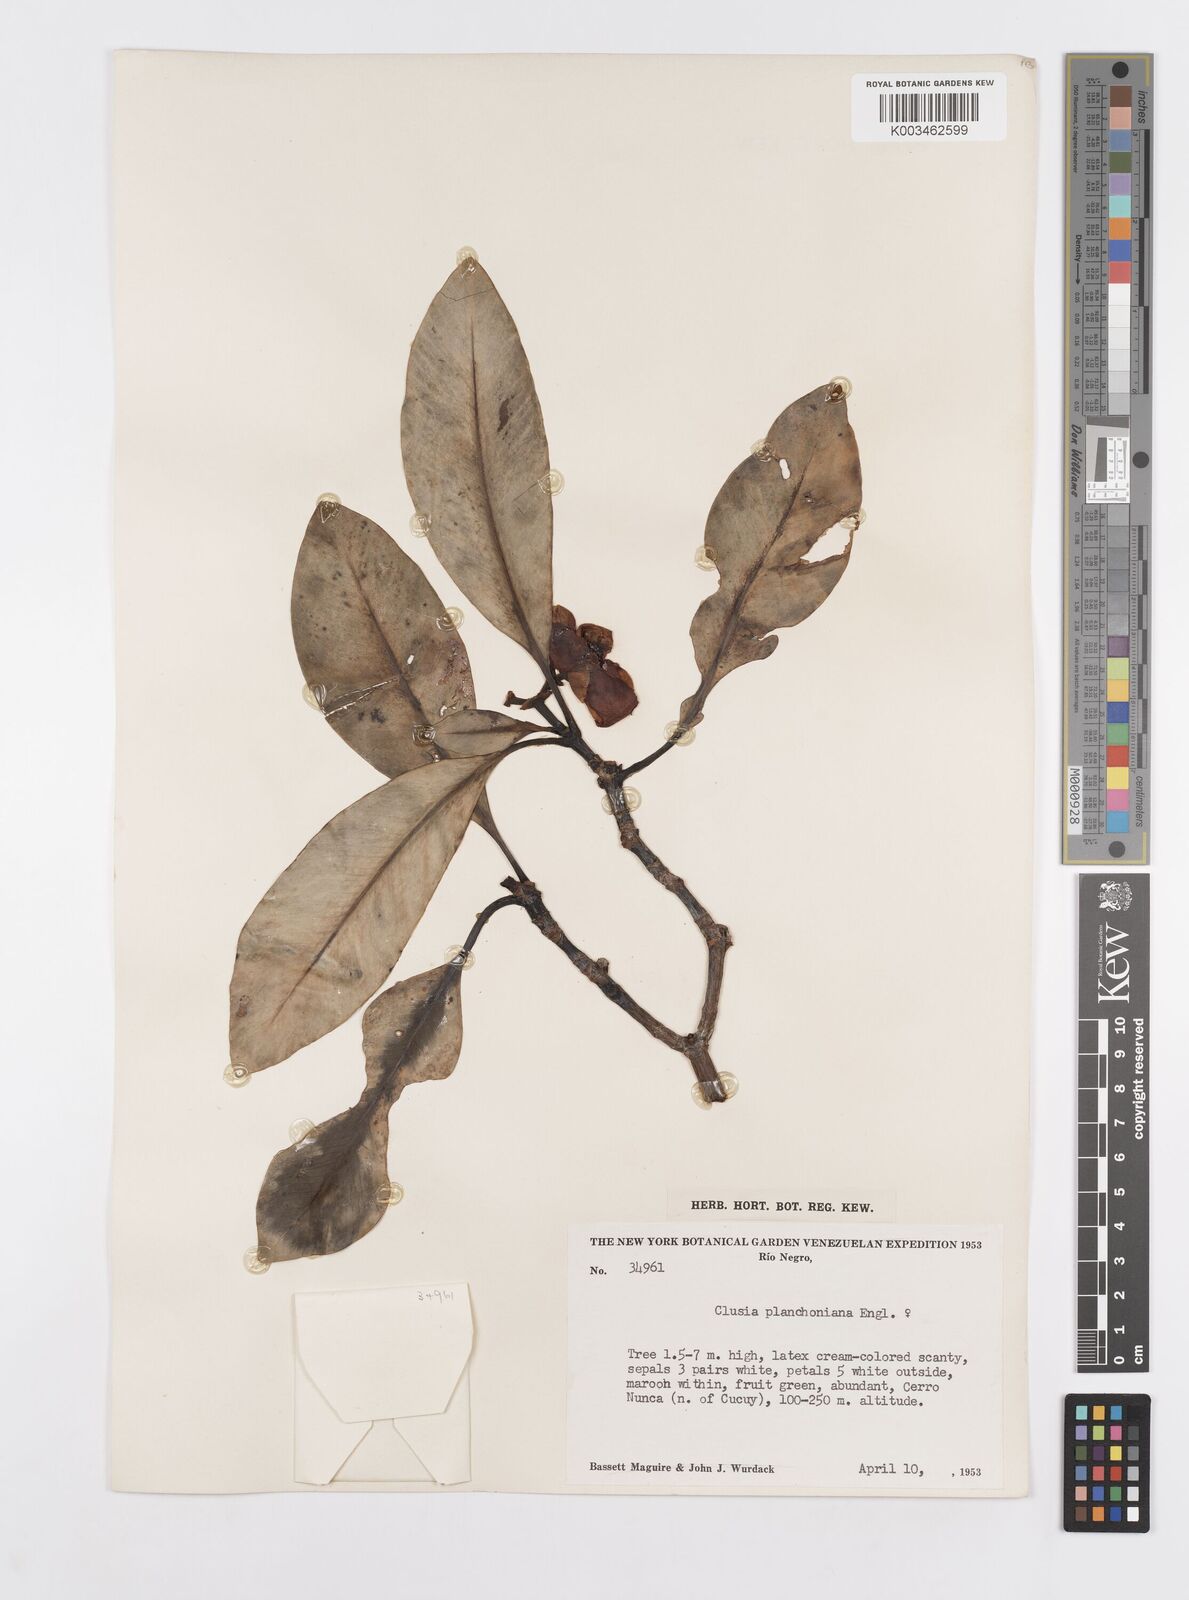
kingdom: Plantae
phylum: Tracheophyta
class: Magnoliopsida
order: Malpighiales
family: Clusiaceae
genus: Clusia
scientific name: Clusia planchoniana
